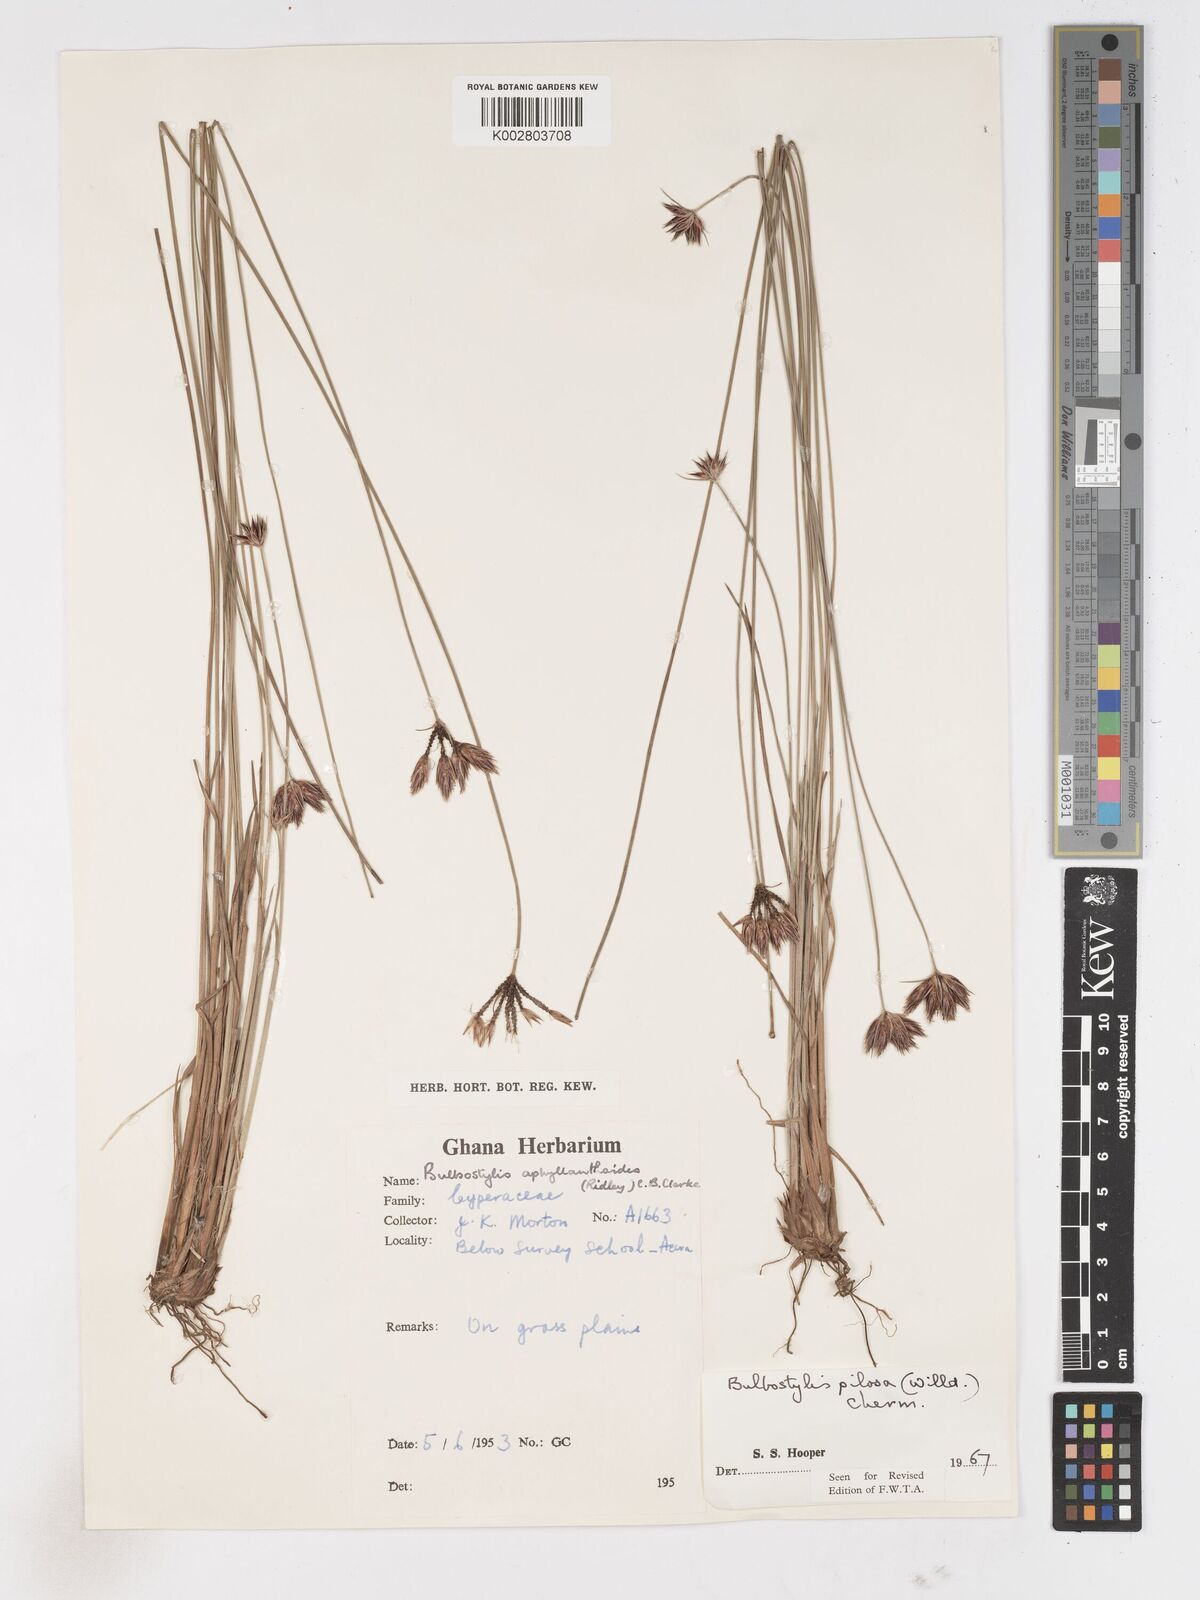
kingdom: Plantae
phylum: Tracheophyta
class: Liliopsida
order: Poales
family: Cyperaceae
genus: Bulbostylis
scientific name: Bulbostylis pilosa
